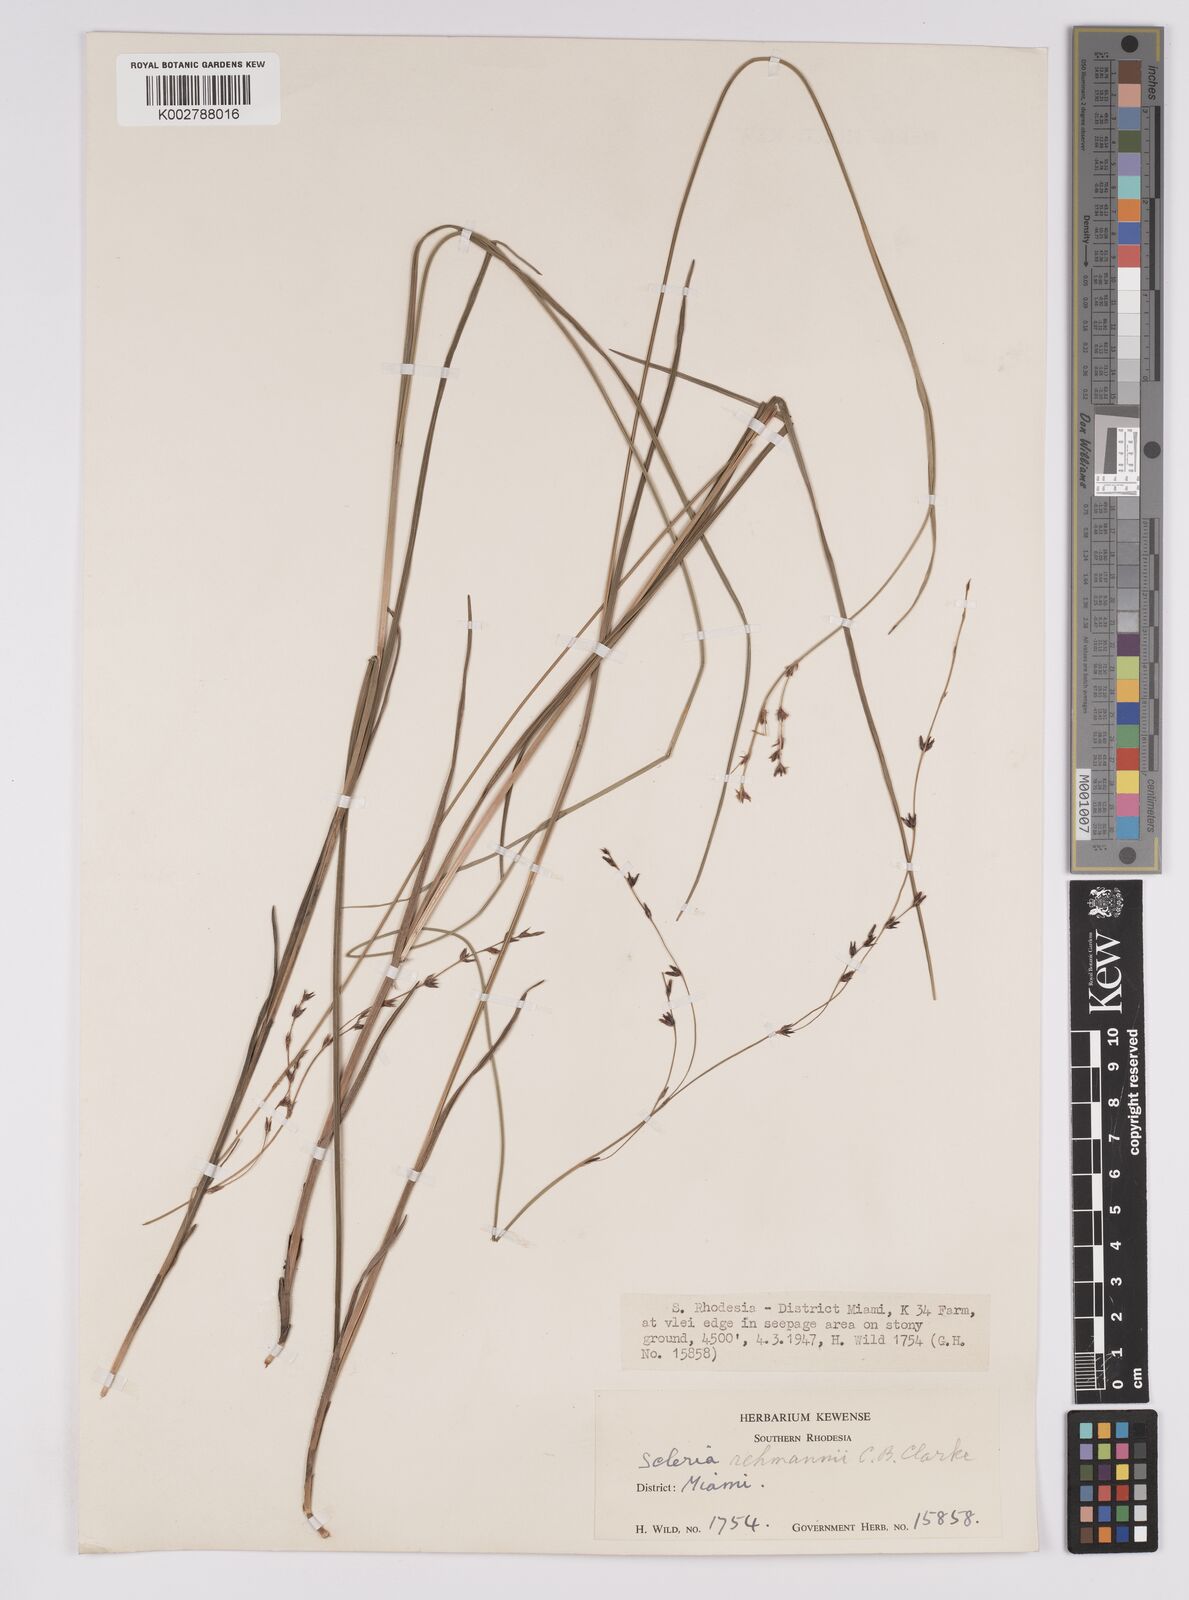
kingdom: Plantae
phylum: Tracheophyta
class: Liliopsida
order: Poales
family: Cyperaceae
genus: Scleria
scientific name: Scleria rehmannii
